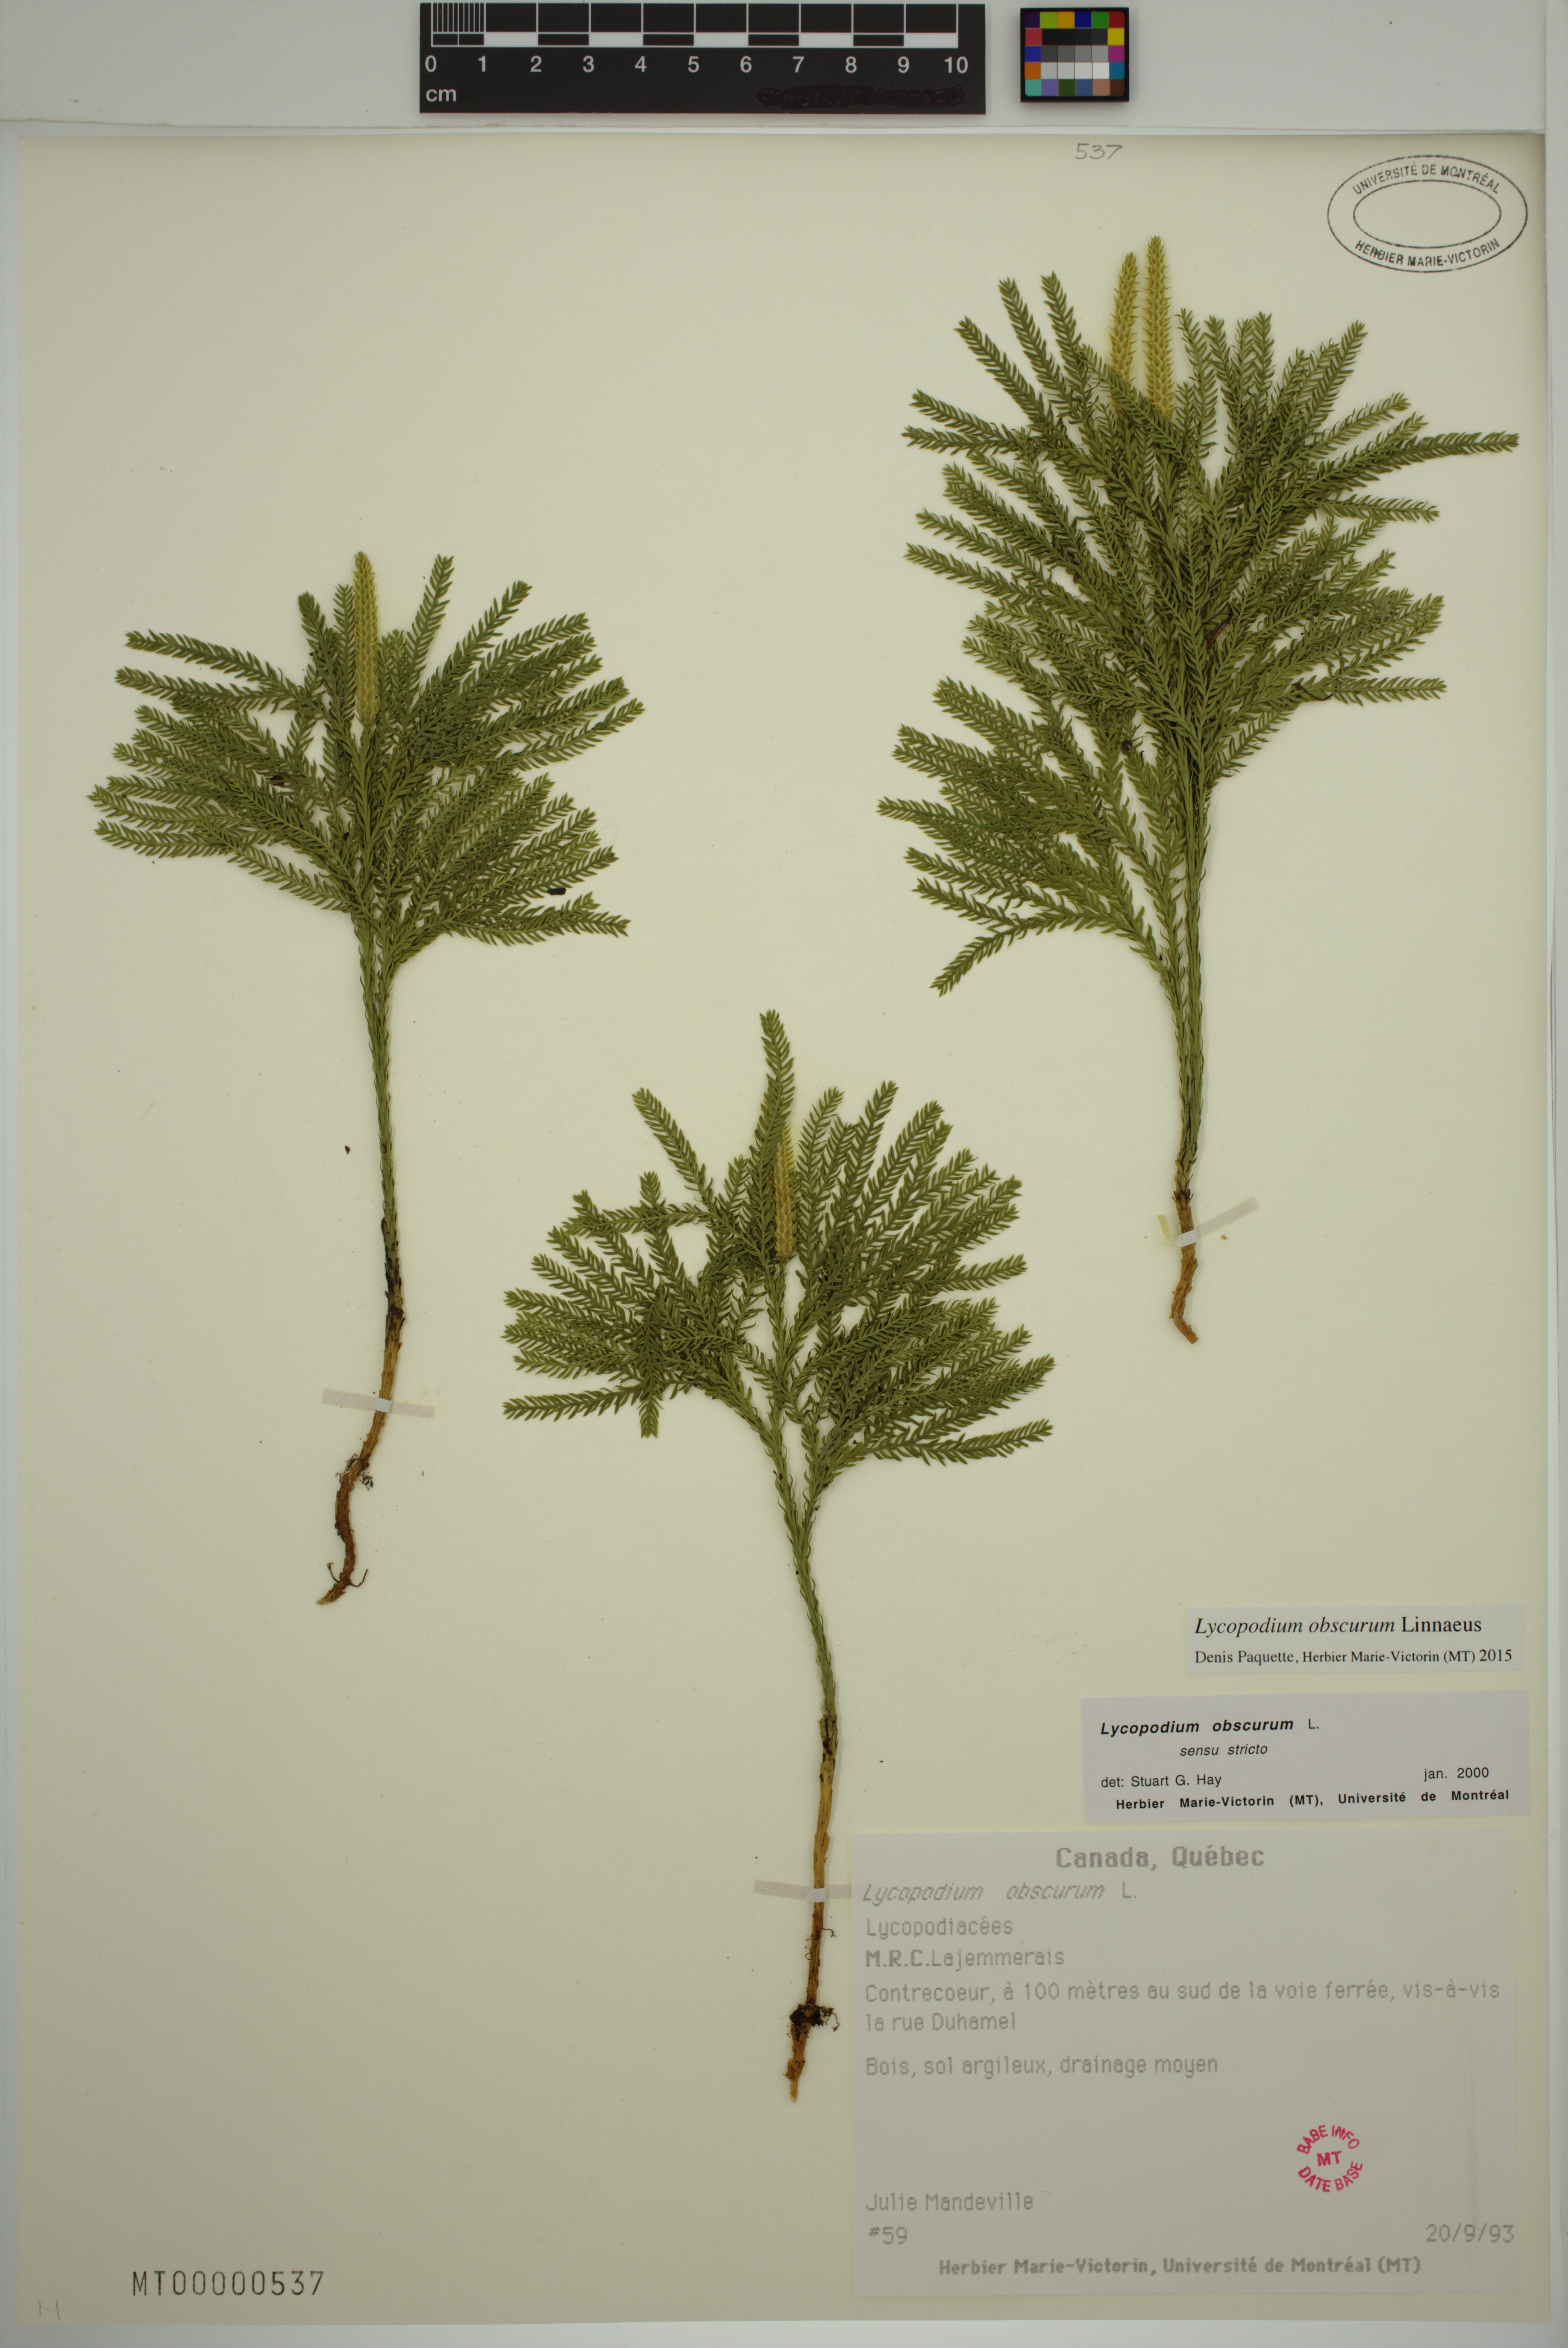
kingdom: Plantae
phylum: Tracheophyta
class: Lycopodiopsida
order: Lycopodiales
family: Lycopodiaceae
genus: Dendrolycopodium
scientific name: Dendrolycopodium obscurum
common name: Common ground-pine
